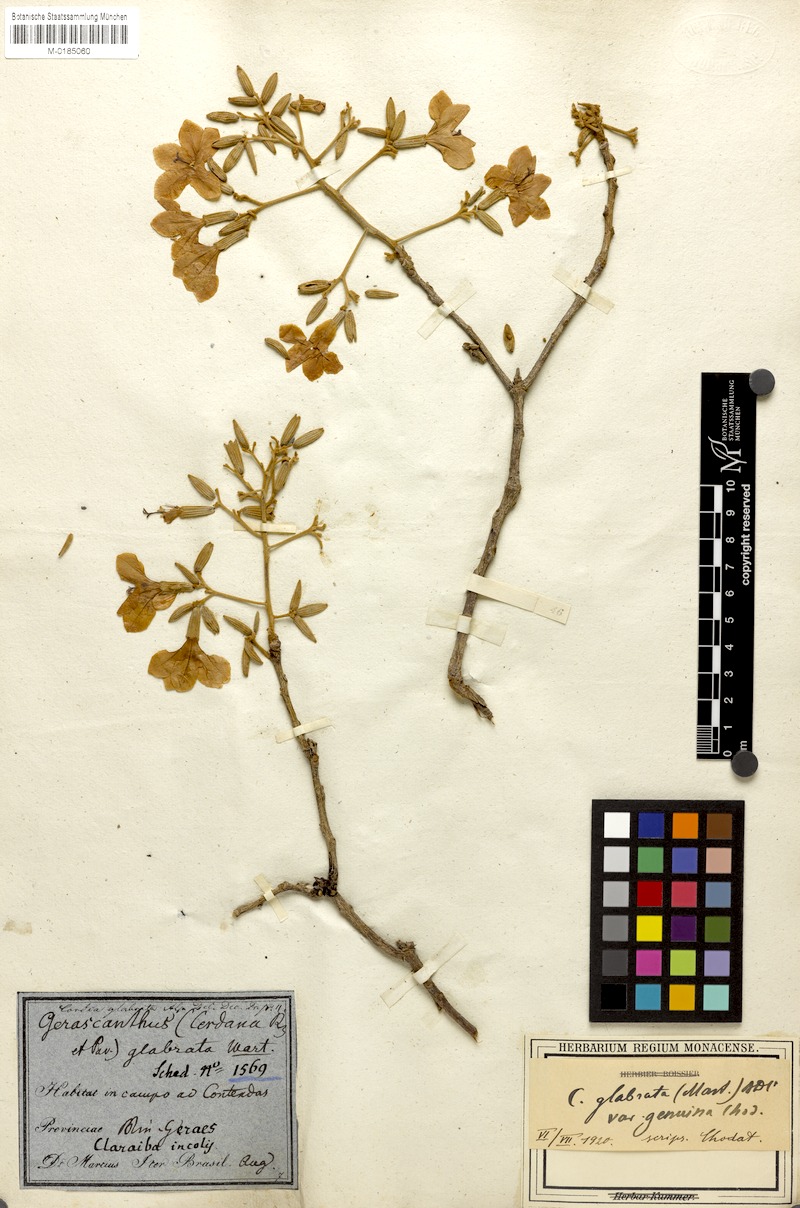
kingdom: Plantae
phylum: Tracheophyta
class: Magnoliopsida
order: Boraginales
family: Cordiaceae
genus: Cordia
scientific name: Cordia glabrata
